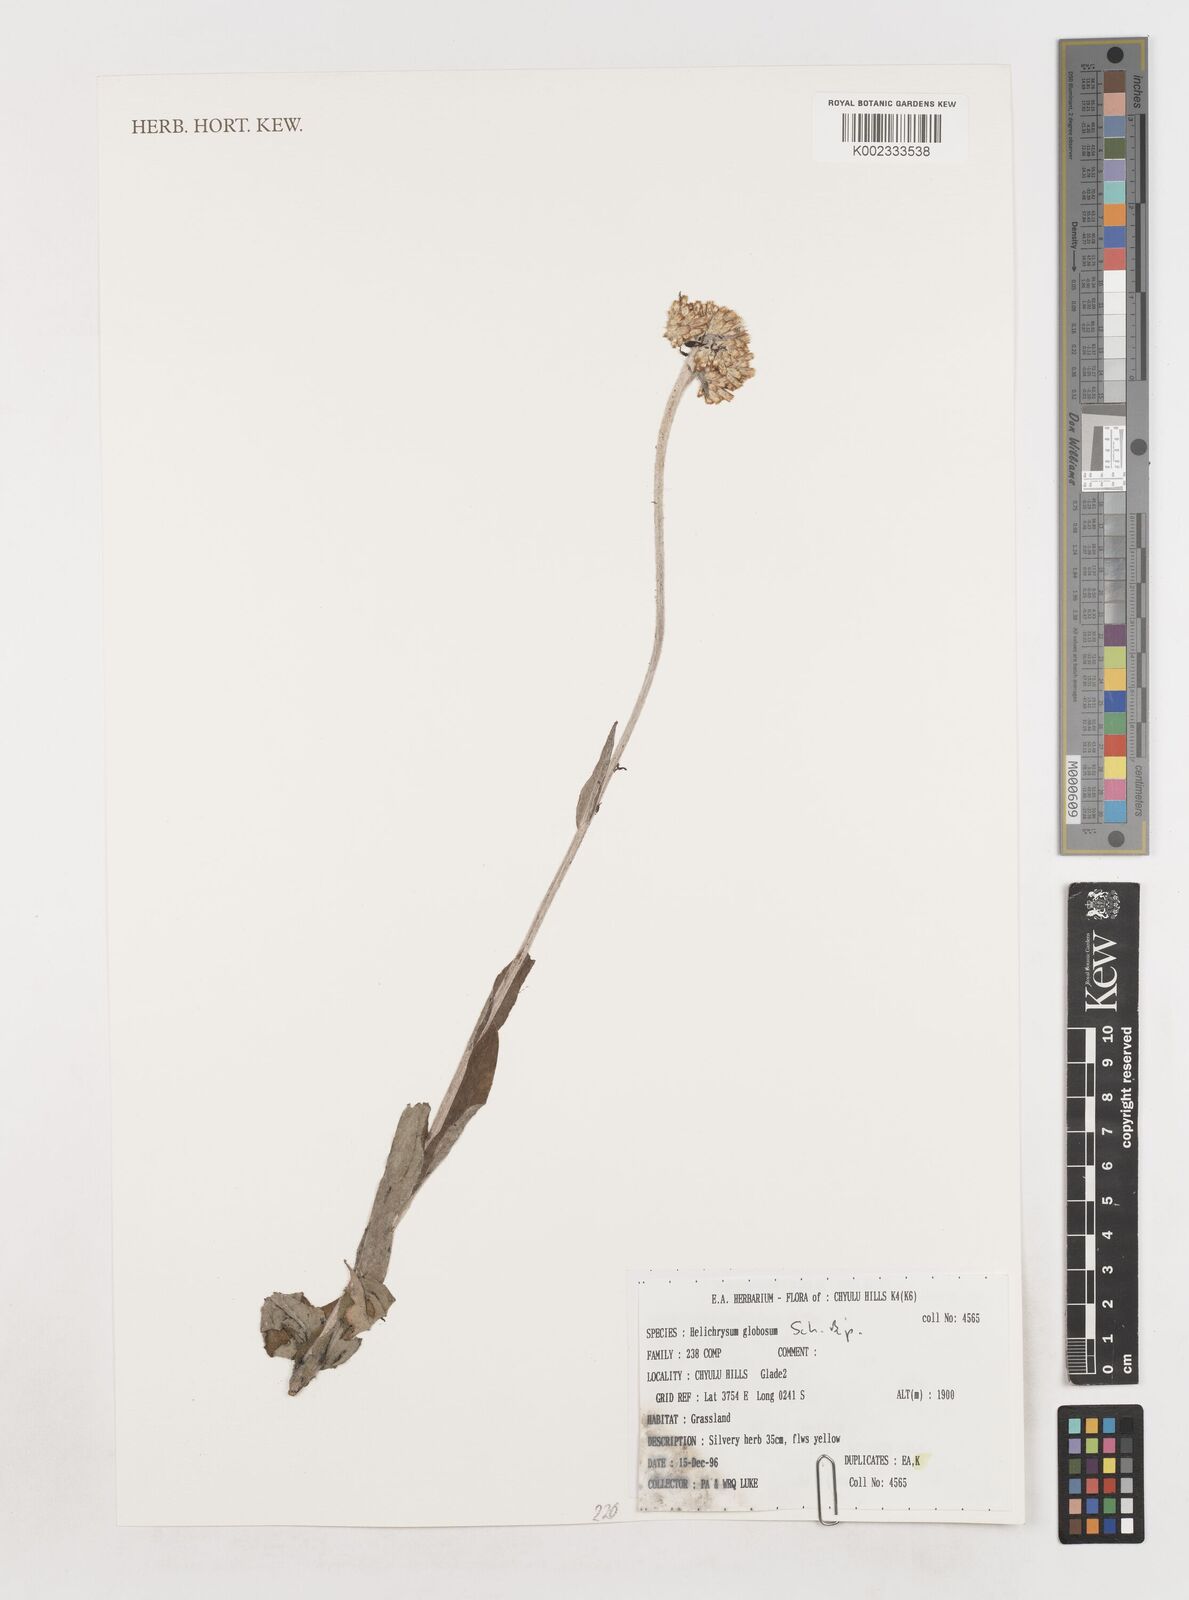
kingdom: Plantae
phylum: Tracheophyta
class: Magnoliopsida
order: Asterales
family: Asteraceae
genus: Helichrysum
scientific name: Helichrysum globosum
